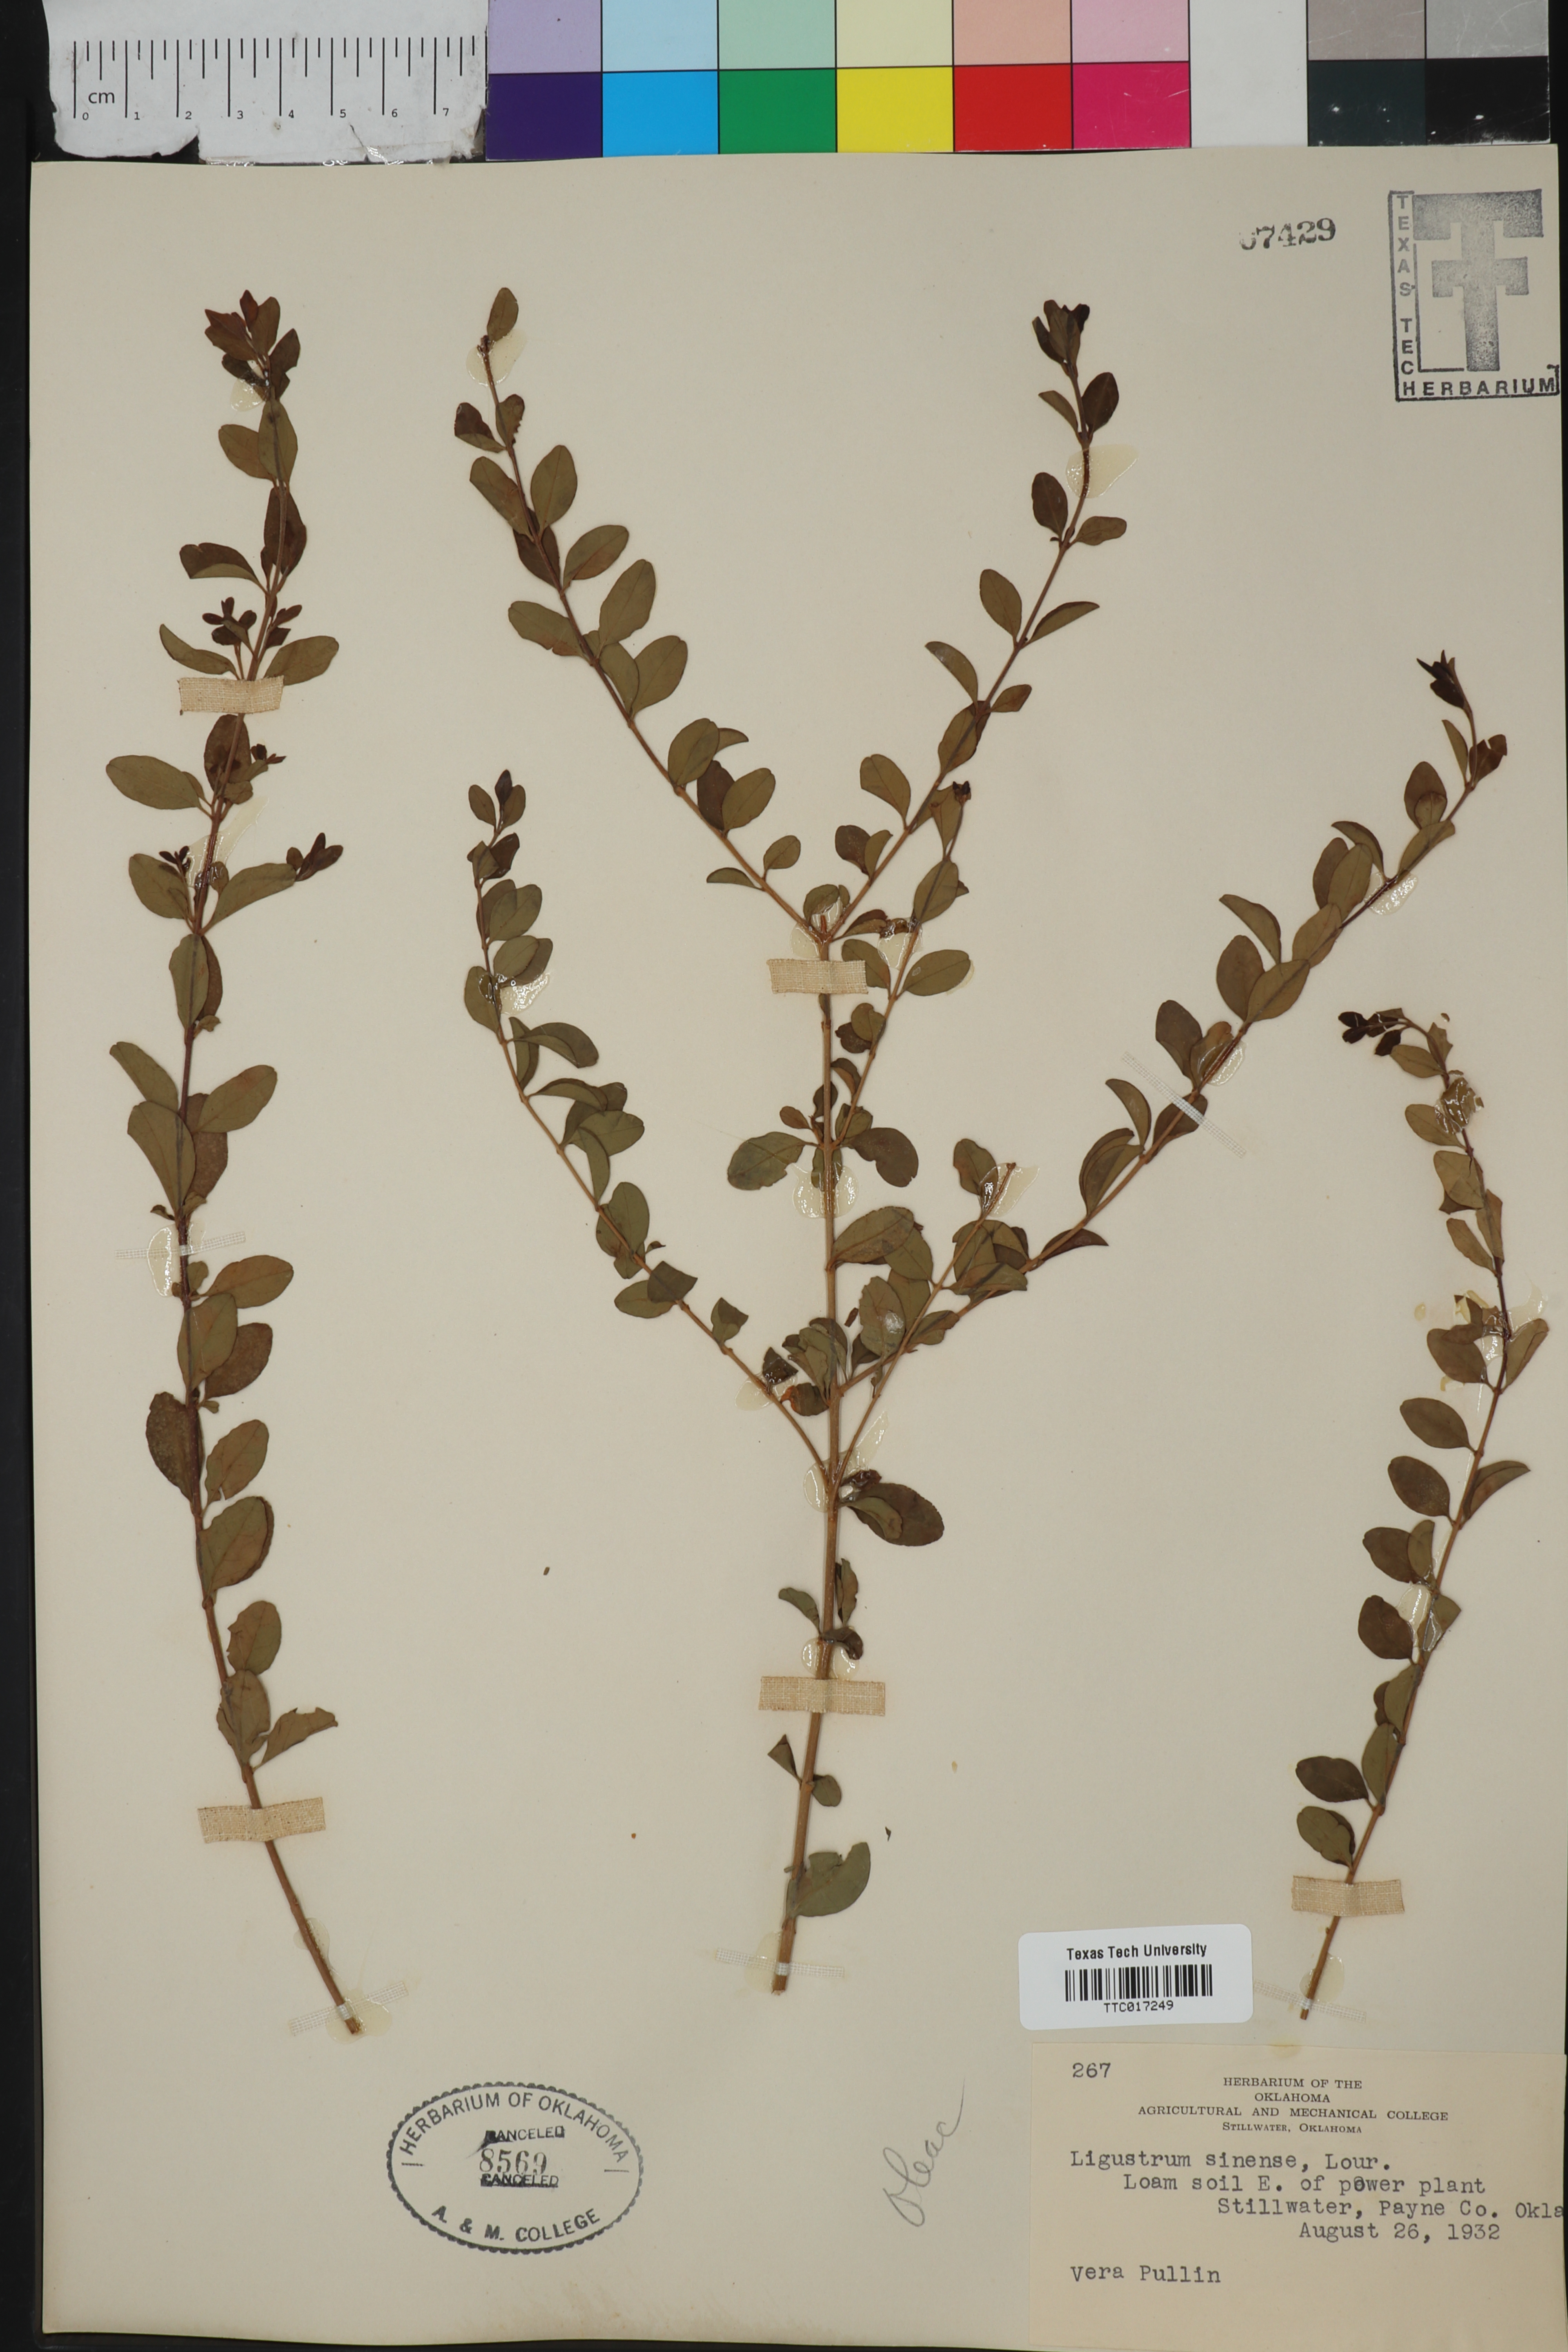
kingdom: Plantae
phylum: Tracheophyta
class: Magnoliopsida
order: Lamiales
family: Oleaceae
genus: Ligustrum
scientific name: Ligustrum sinense
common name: Chinese privet
